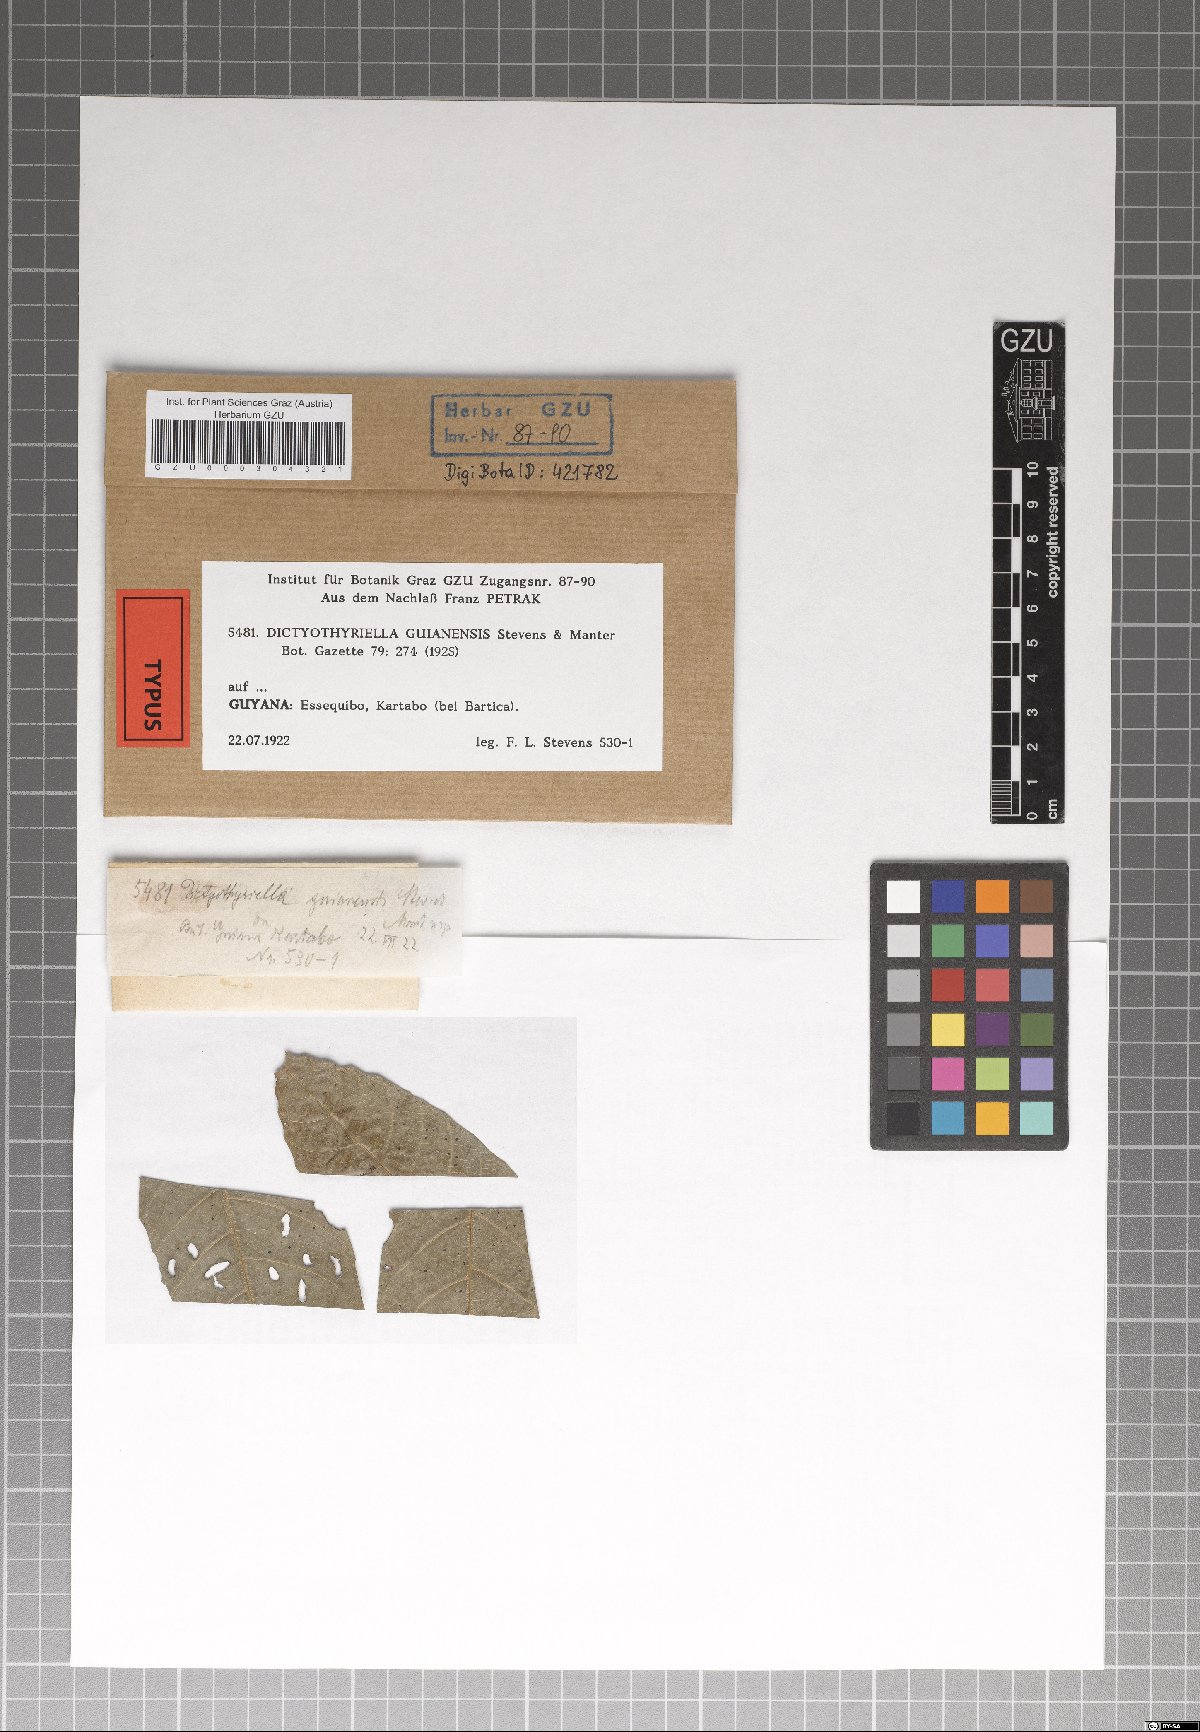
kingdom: Fungi
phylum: Ascomycota
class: Dothideomycetes
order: Microthyriales
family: Micropeltidaceae
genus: Dictyothyriella
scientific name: Dictyothyriella guianensis
